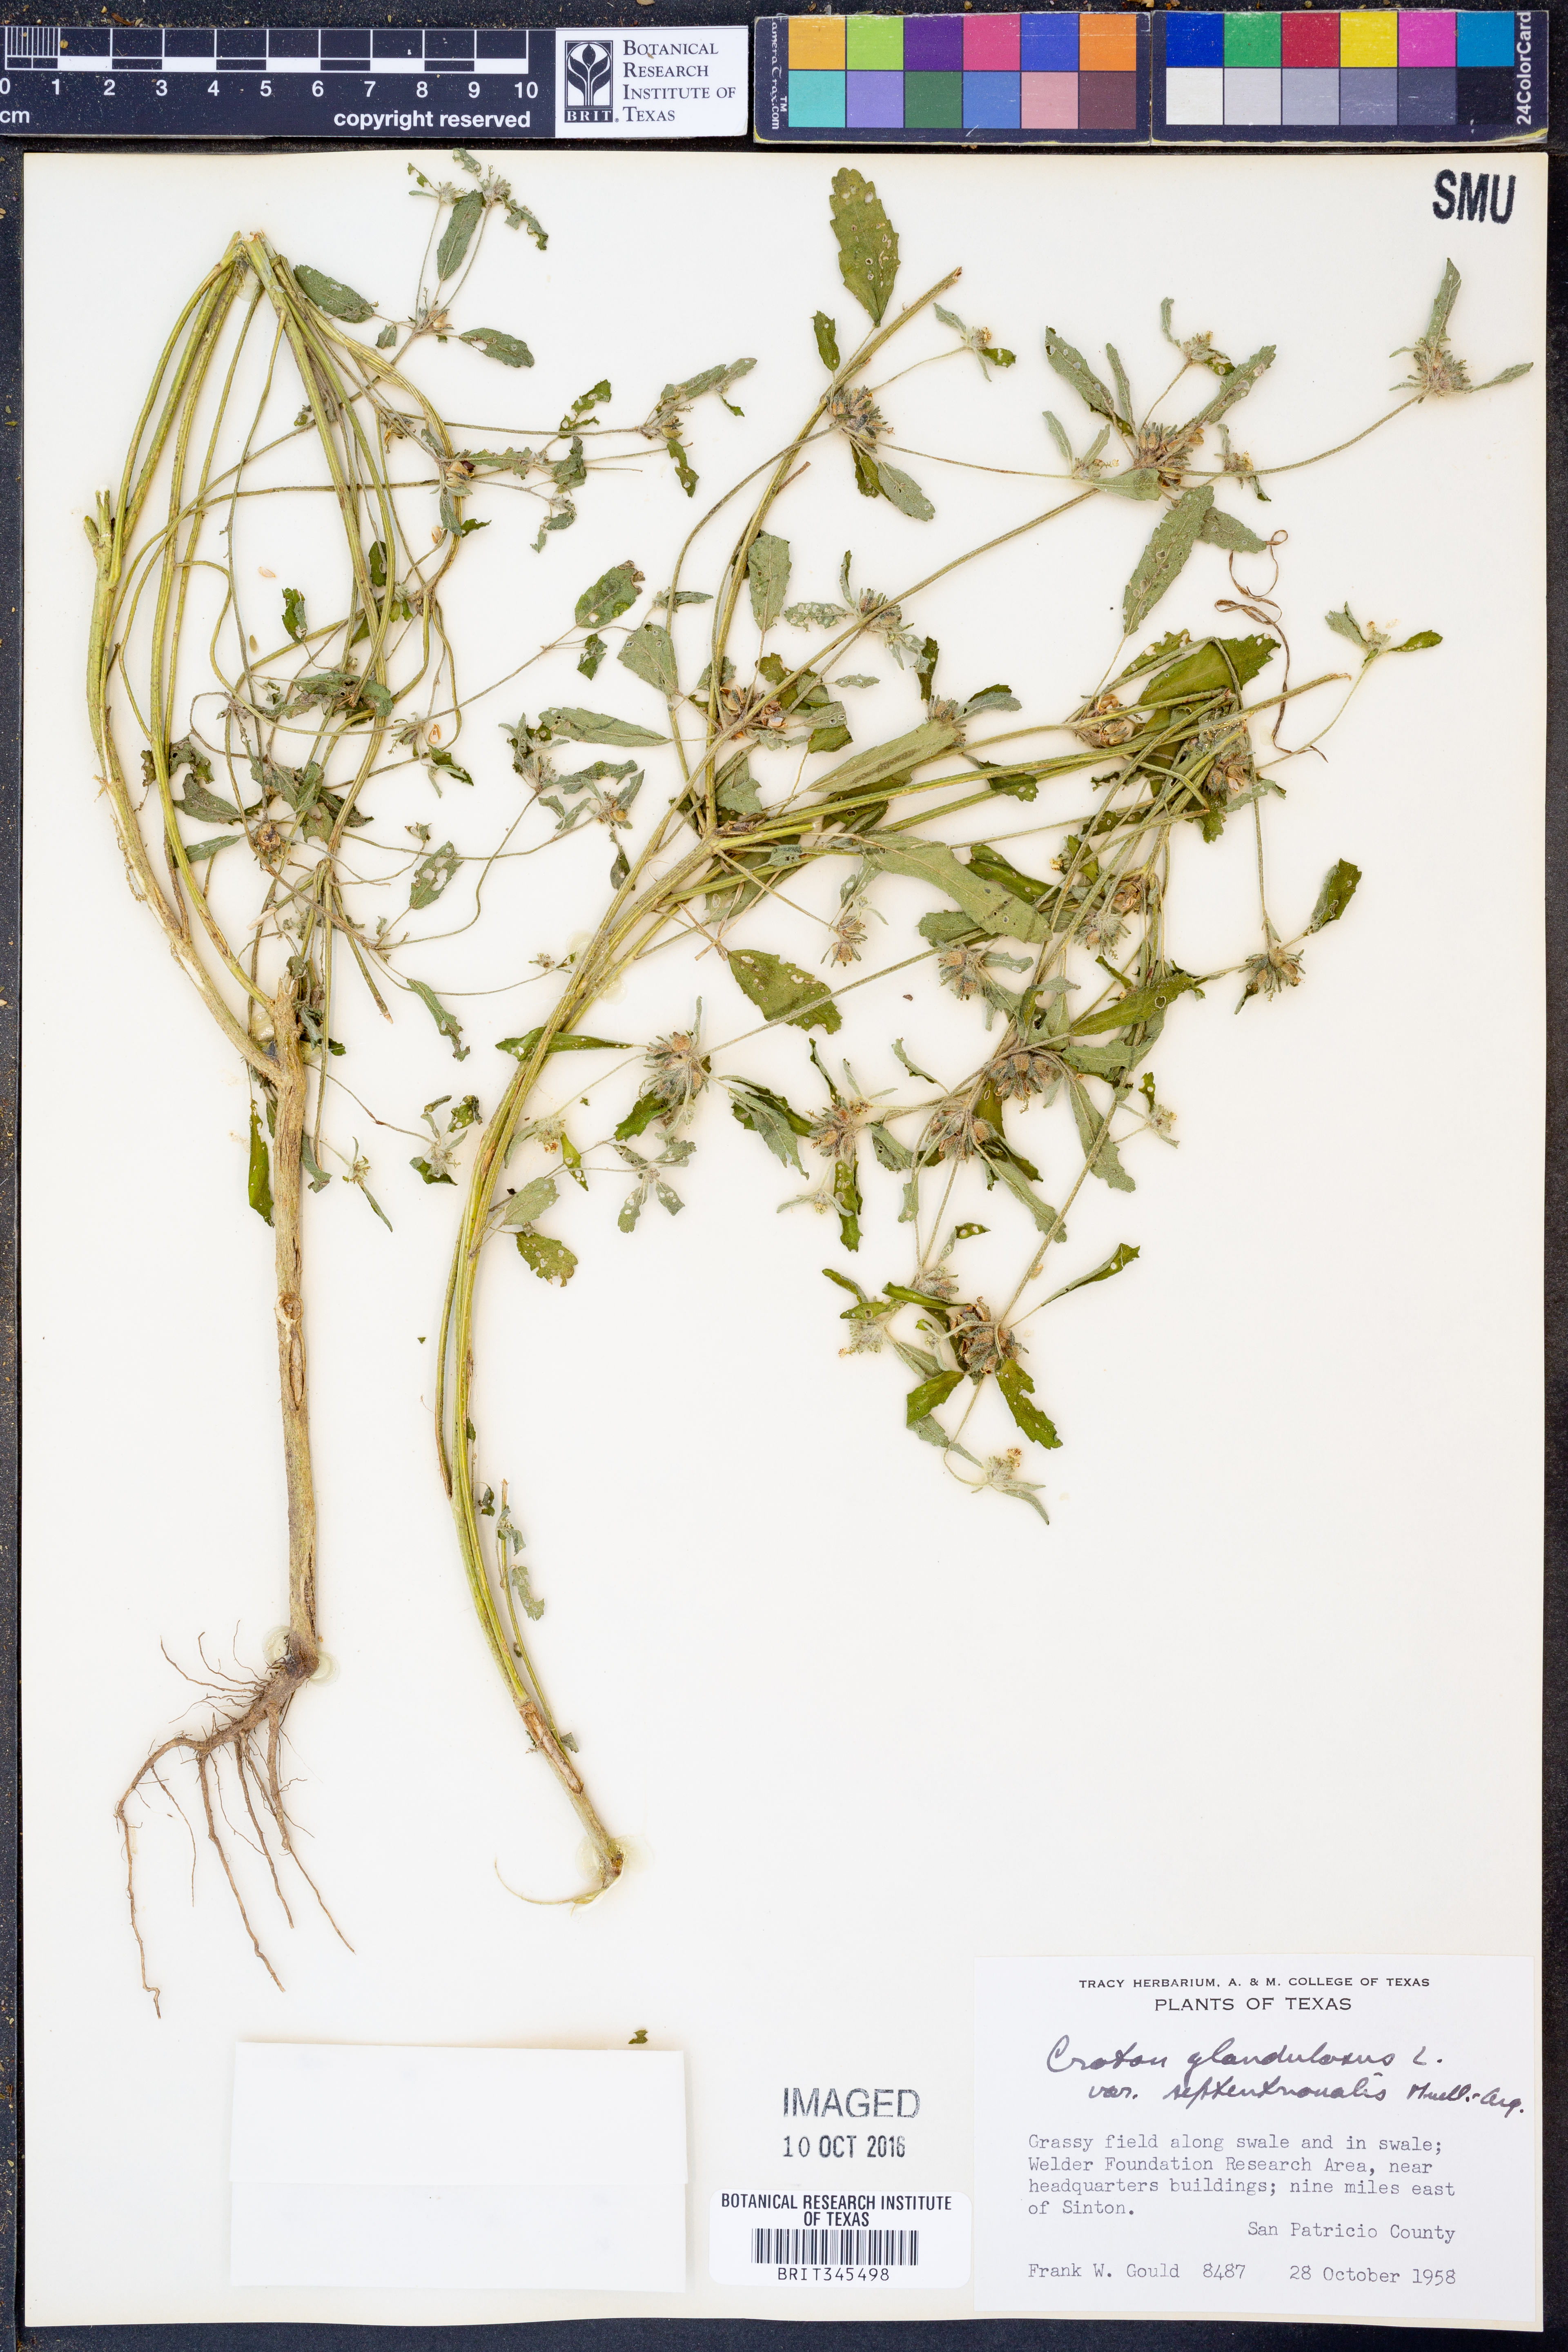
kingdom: Plantae
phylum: Tracheophyta
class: Magnoliopsida
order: Malpighiales
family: Euphorbiaceae
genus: Croton
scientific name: Croton glandulosus
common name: Tropic croton
